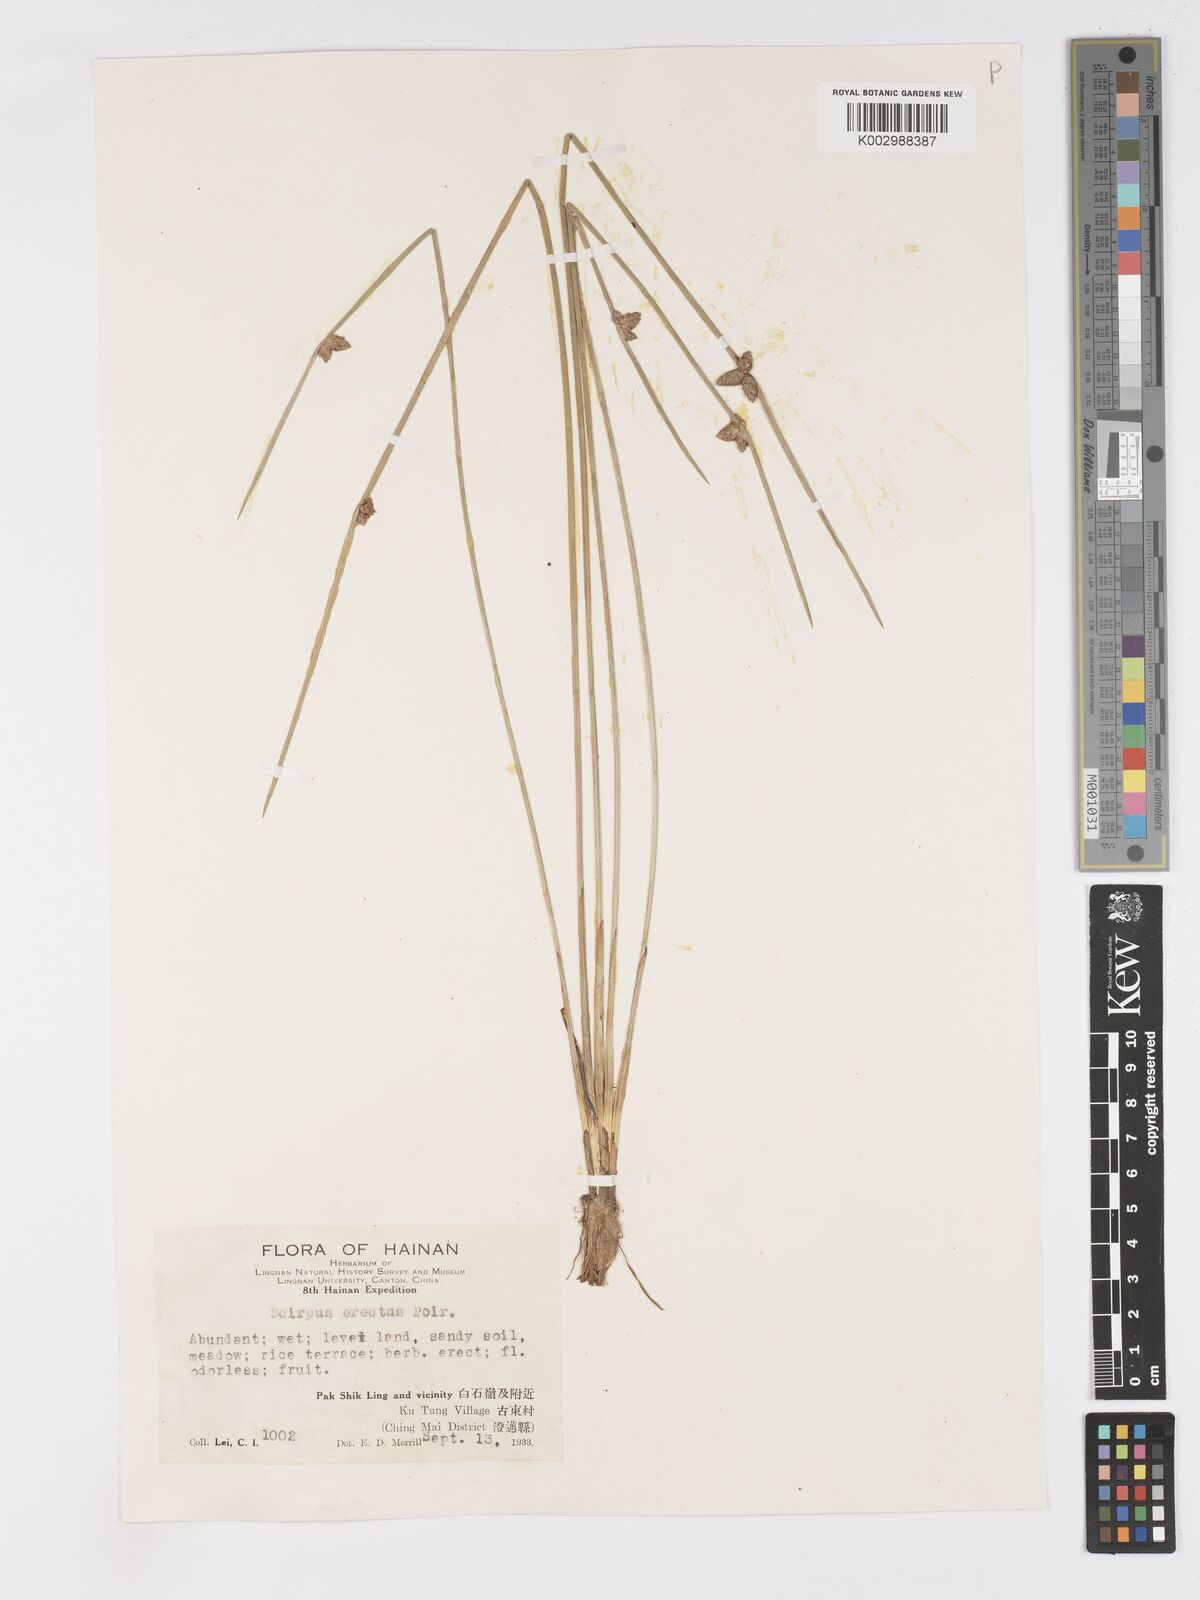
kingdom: Plantae
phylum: Tracheophyta
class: Liliopsida
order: Poales
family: Cyperaceae
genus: Schoenoplectiella
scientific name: Schoenoplectiella erecta
